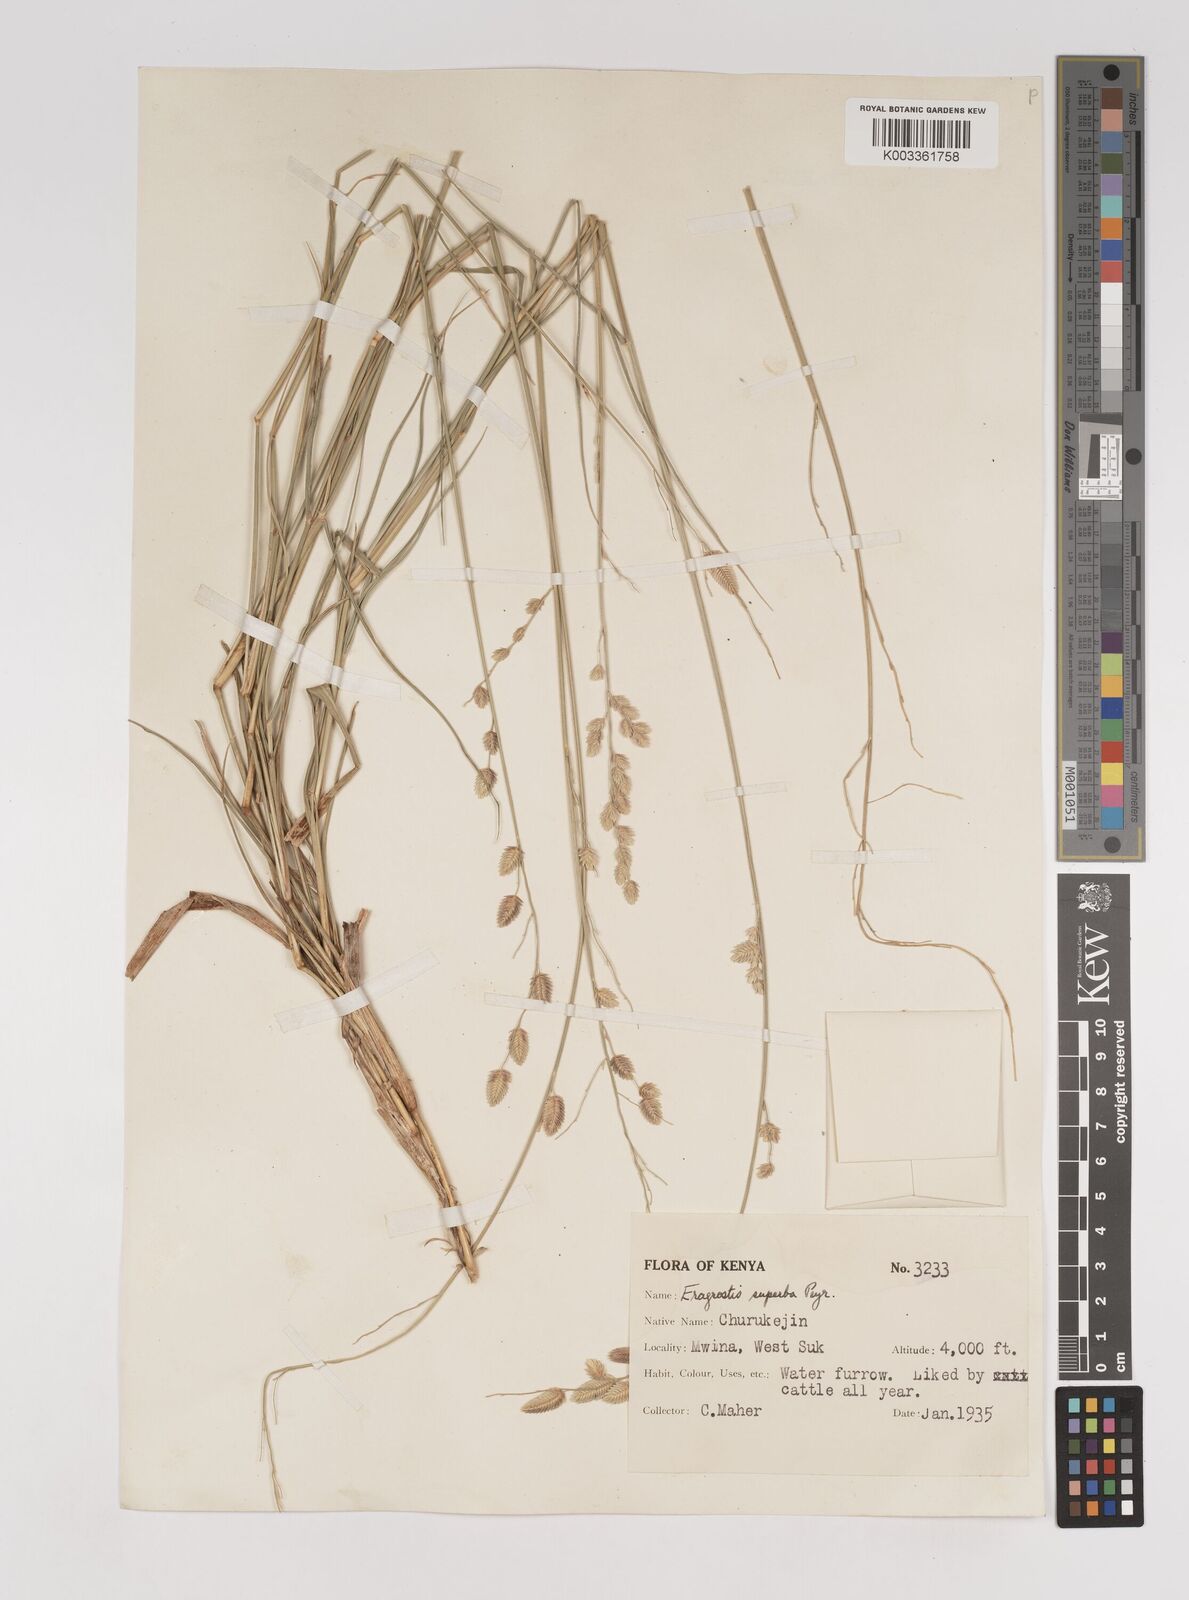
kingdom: Plantae
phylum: Tracheophyta
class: Liliopsida
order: Poales
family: Poaceae
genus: Eragrostis
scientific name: Eragrostis superba
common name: Wilman lovegrass
